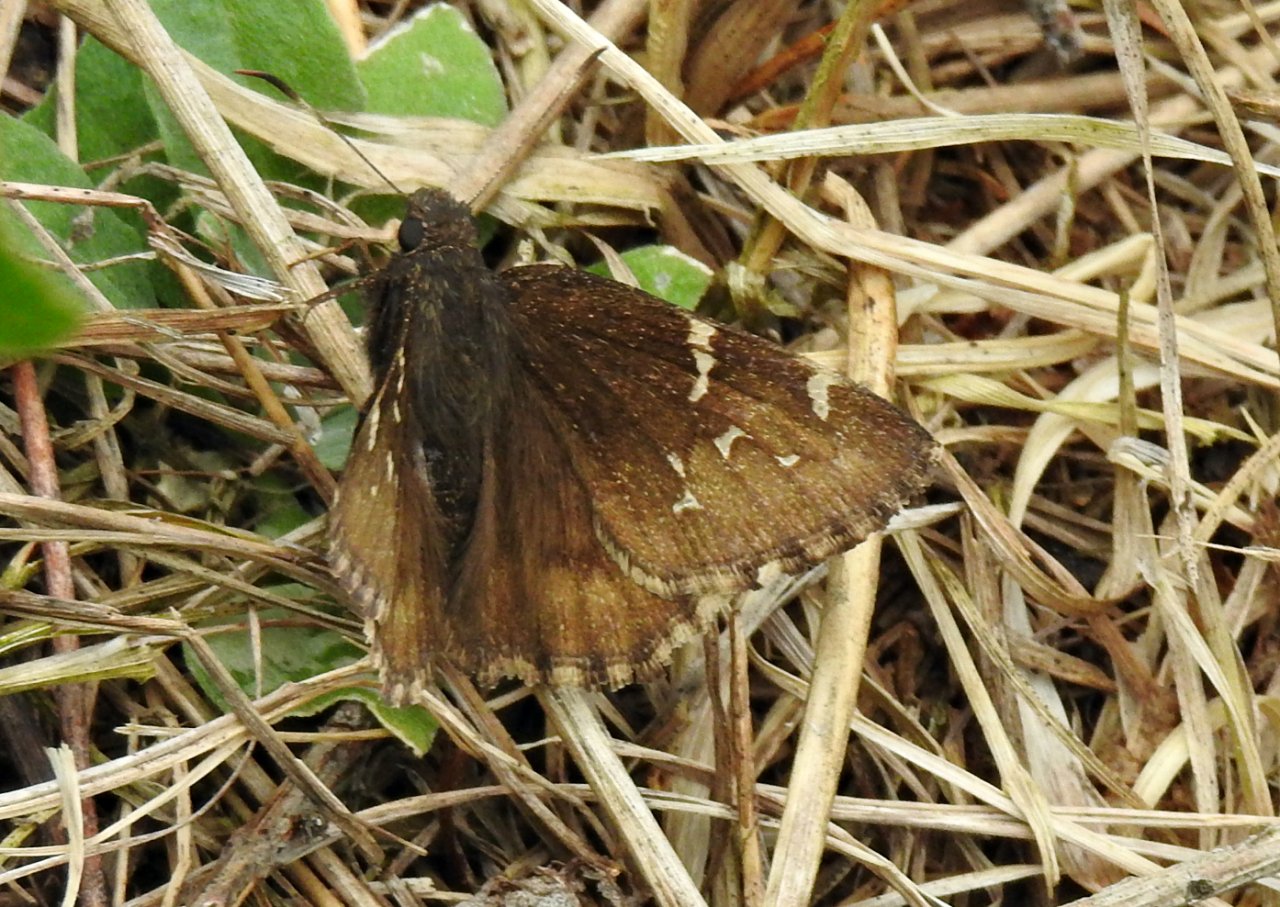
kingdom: Animalia
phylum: Arthropoda
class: Insecta
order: Lepidoptera
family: Hesperiidae
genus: Autochton
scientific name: Autochton
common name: Northern Cloudywing
